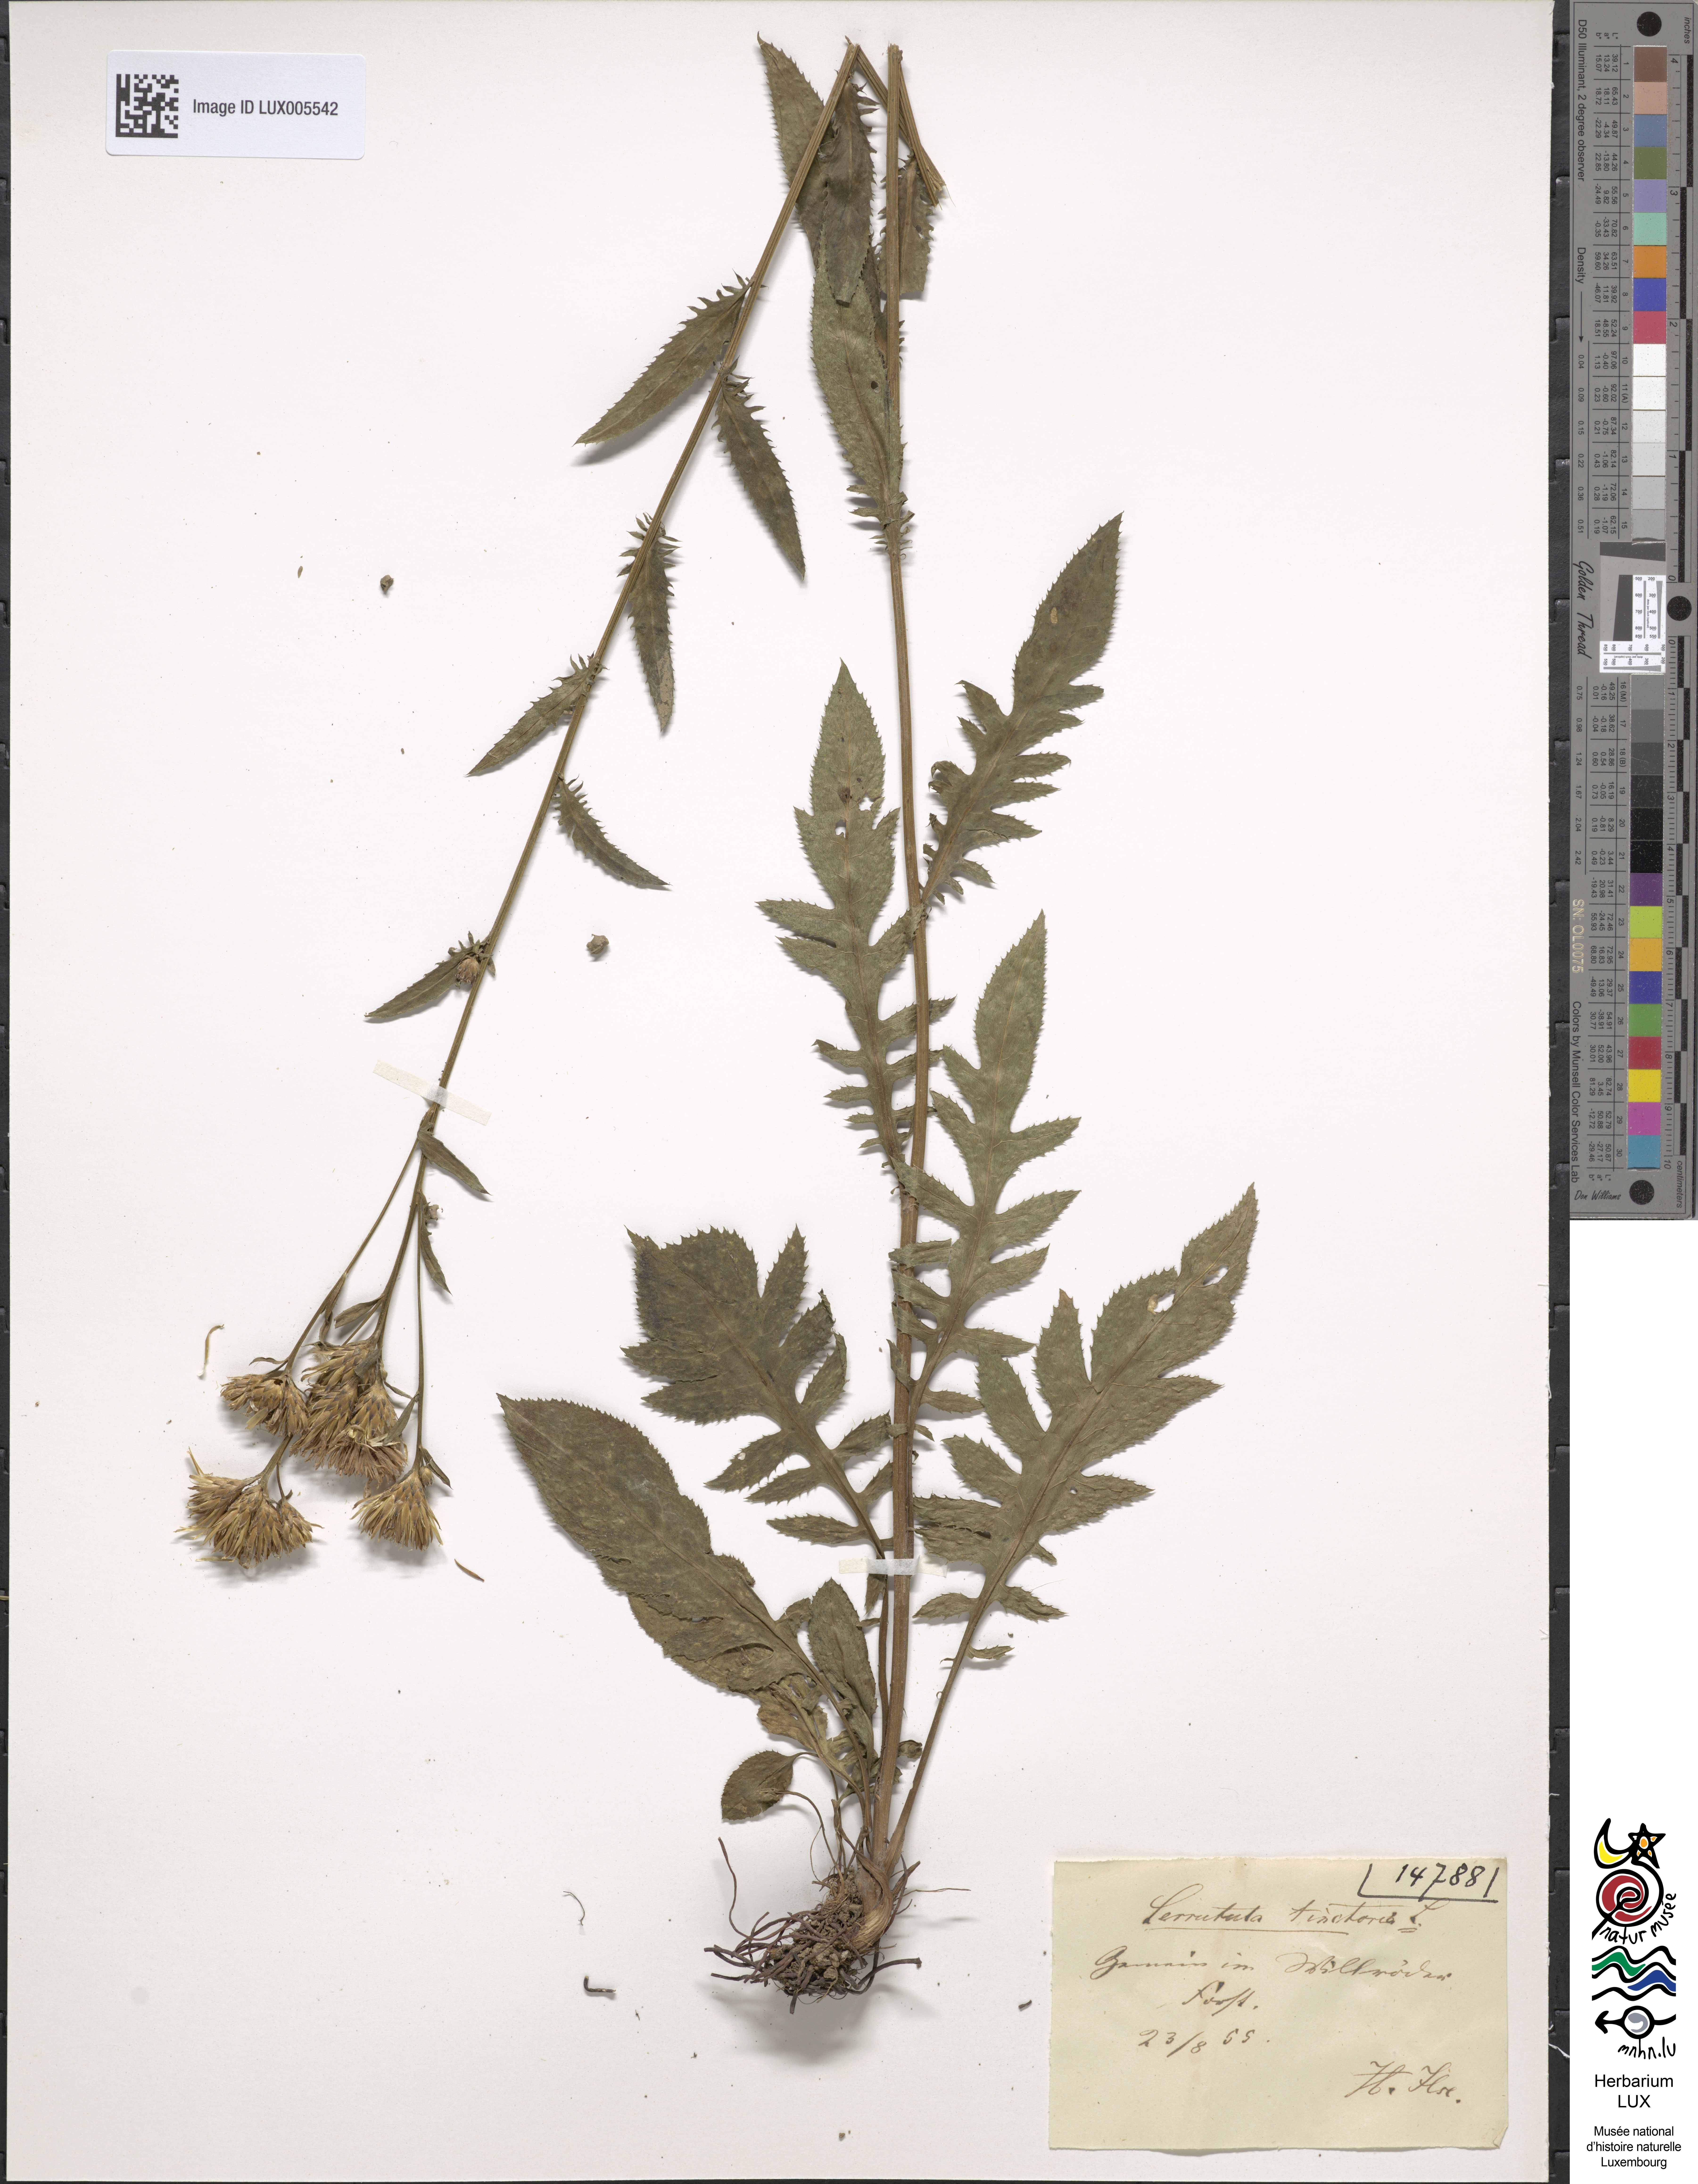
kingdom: Plantae
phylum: Tracheophyta
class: Magnoliopsida
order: Asterales
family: Asteraceae
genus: Serratula
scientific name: Serratula tinctoria
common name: Saw-wort
